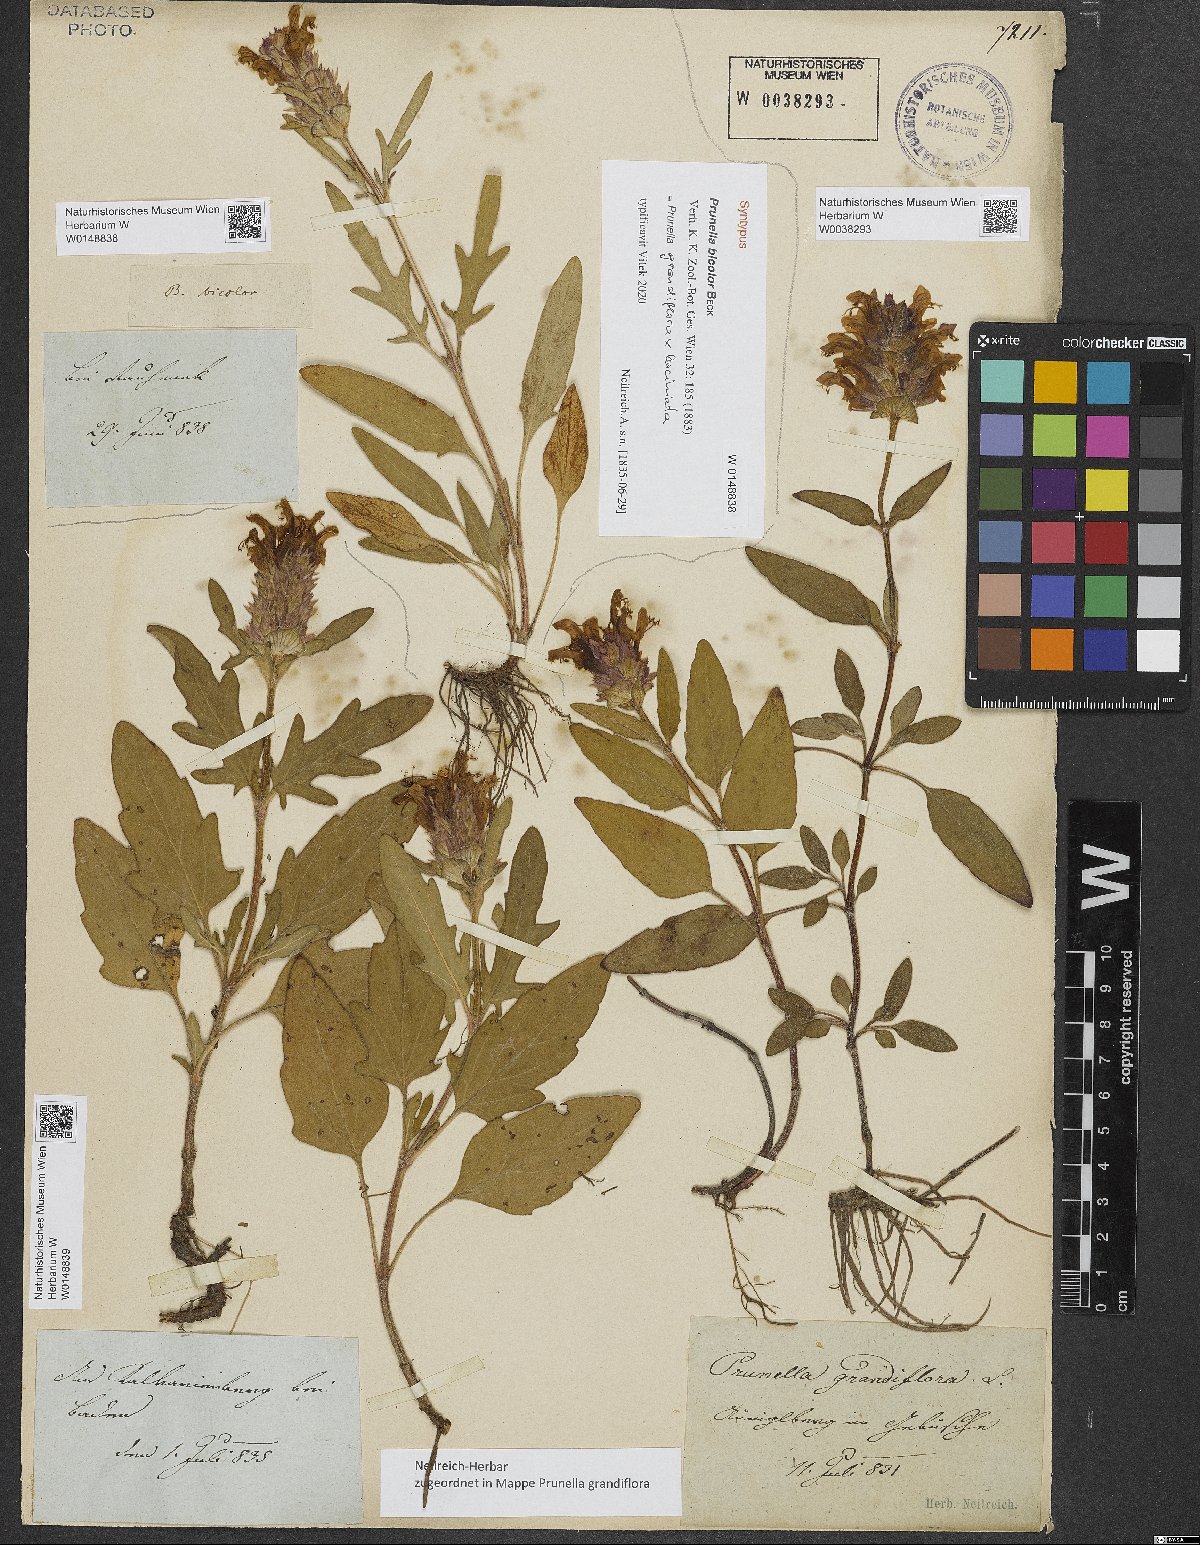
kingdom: Plantae
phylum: Tracheophyta
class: Magnoliopsida
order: Lamiales
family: Lamiaceae
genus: Prunella
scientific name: Prunella bicolor
